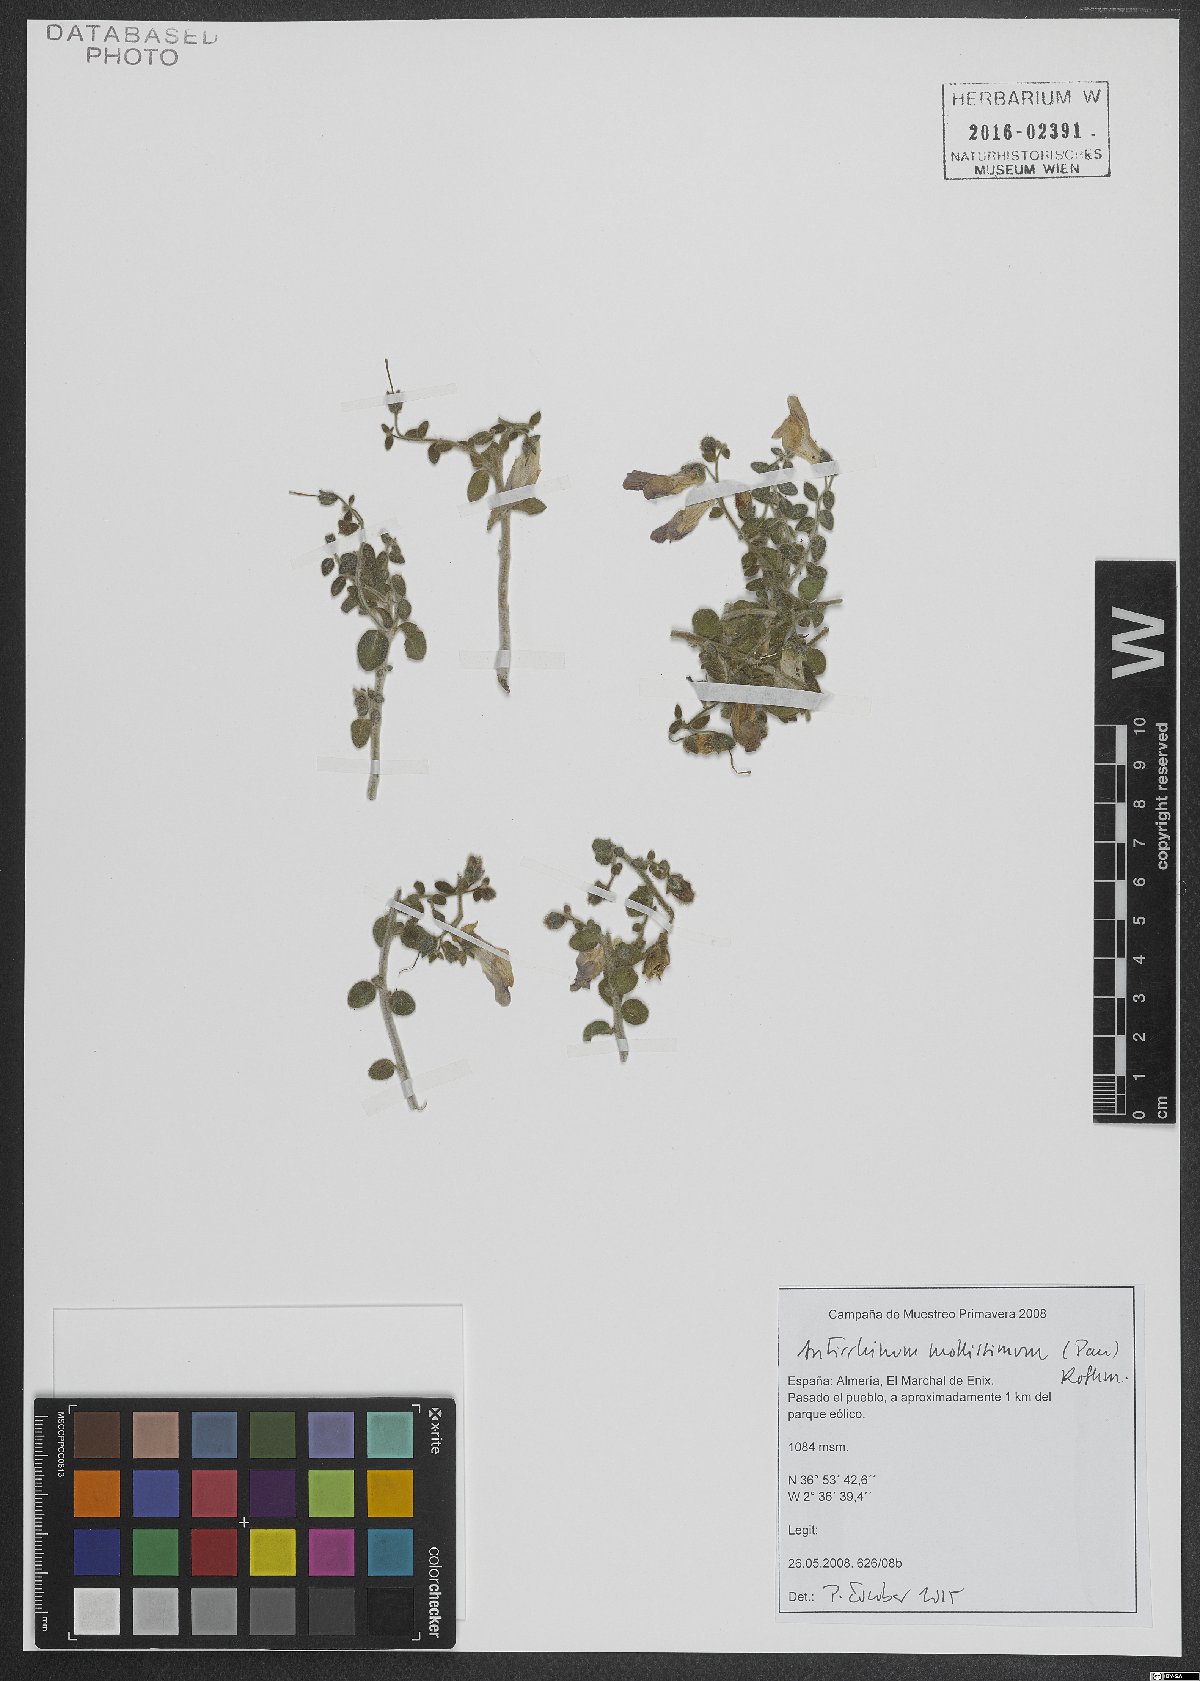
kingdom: Plantae
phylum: Tracheophyta
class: Magnoliopsida
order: Lamiales
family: Plantaginaceae
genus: Antirrhinum
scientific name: Antirrhinum mollissimum
